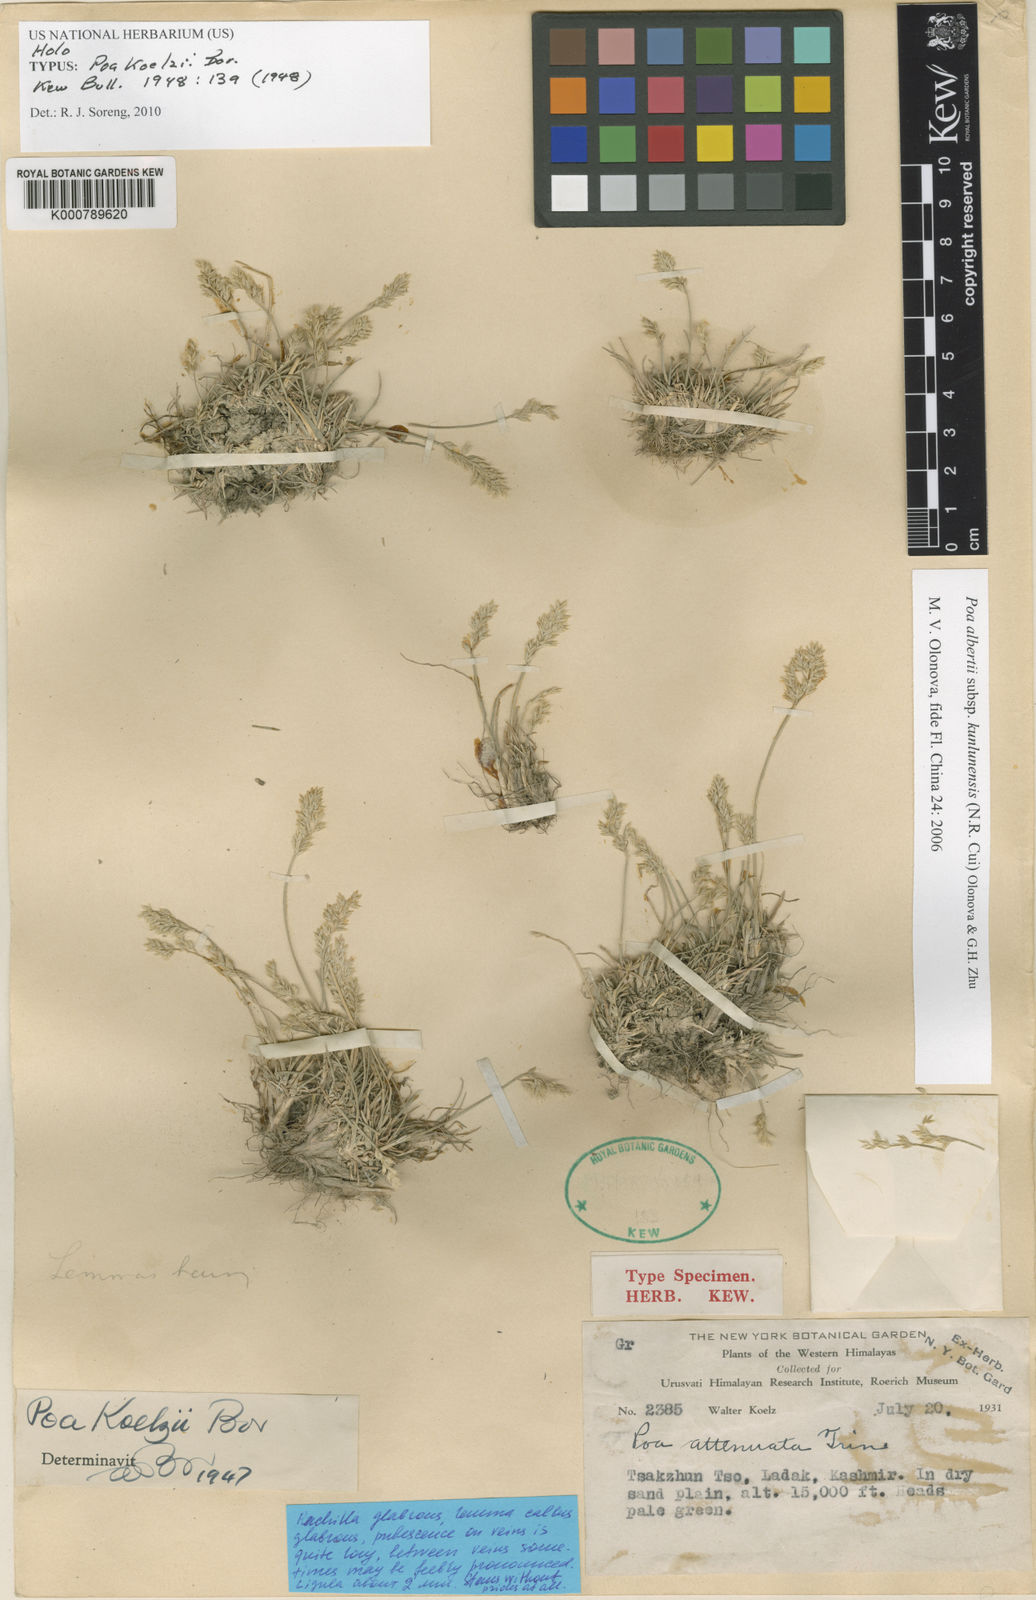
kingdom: Plantae
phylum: Tracheophyta
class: Liliopsida
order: Poales
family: Poaceae
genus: Poa
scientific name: Poa alberti
